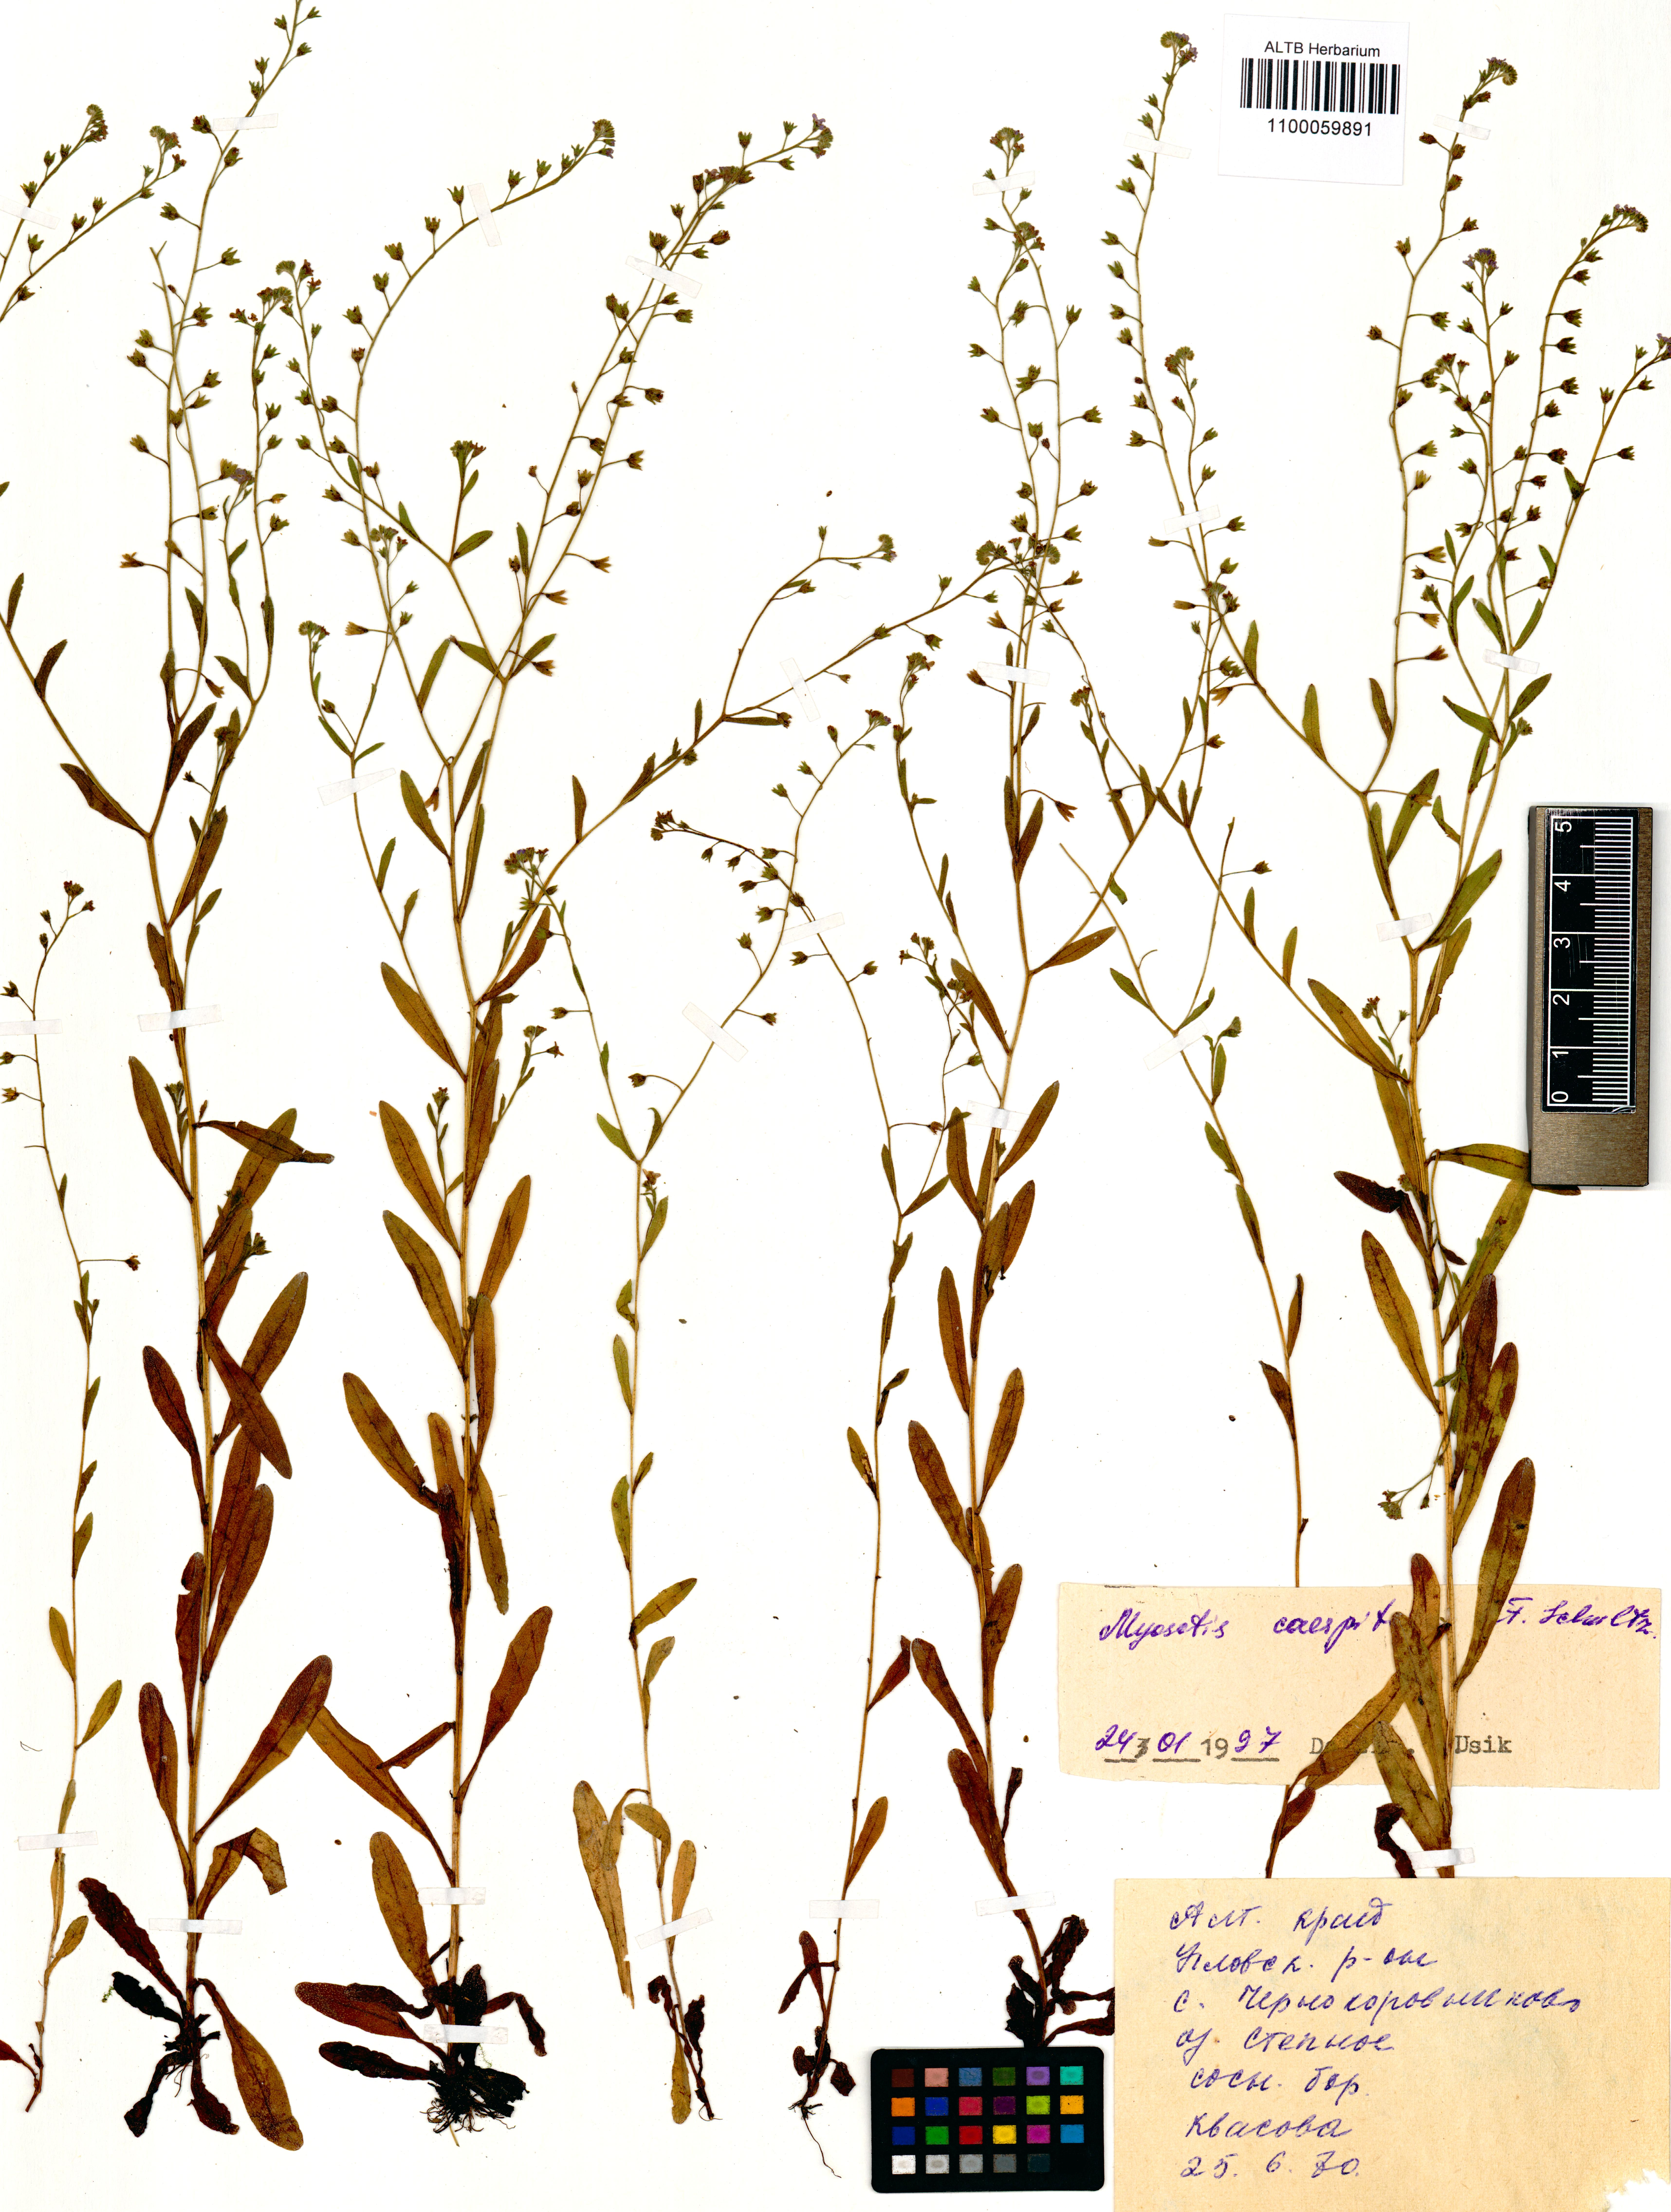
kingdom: Plantae
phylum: Tracheophyta
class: Magnoliopsida
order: Boraginales
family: Boraginaceae
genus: Myosotis
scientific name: Myosotis laxa
